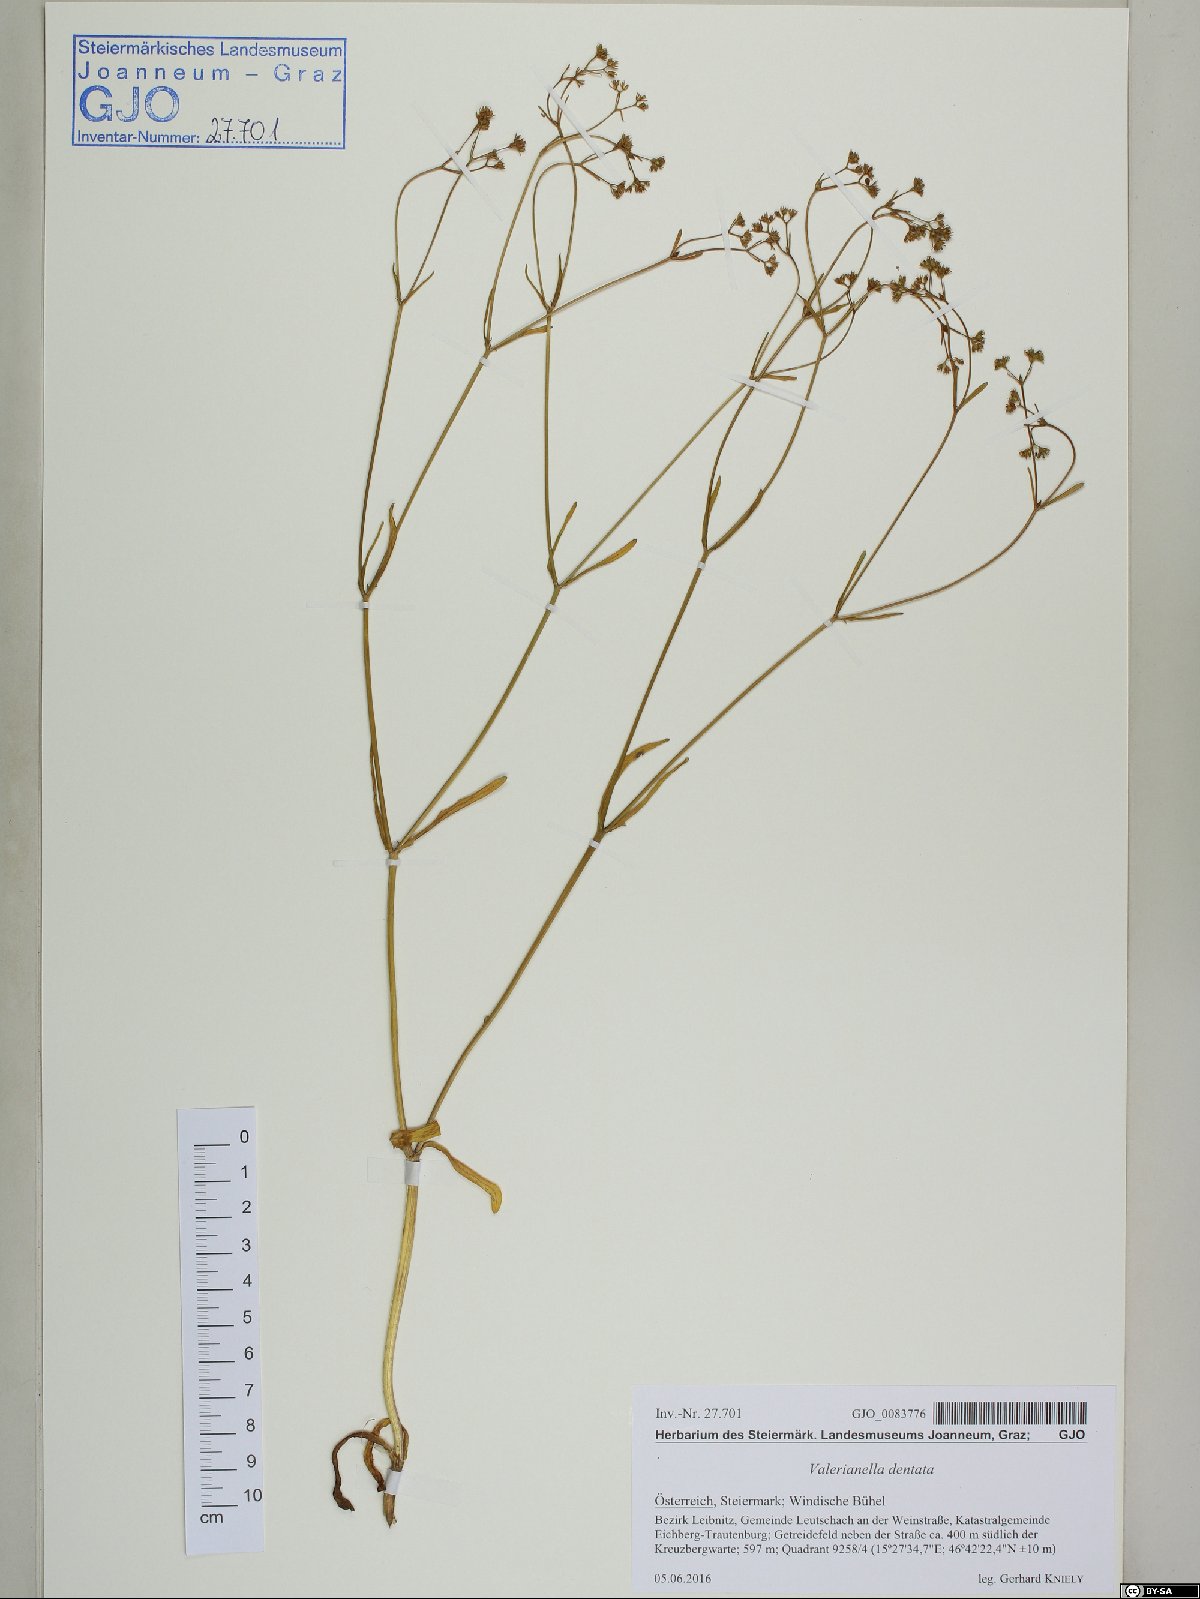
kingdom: Plantae
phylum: Tracheophyta
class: Magnoliopsida
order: Dipsacales
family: Caprifoliaceae
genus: Valerianella
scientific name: Valerianella dentata
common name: Narrow-fruited cornsalad
